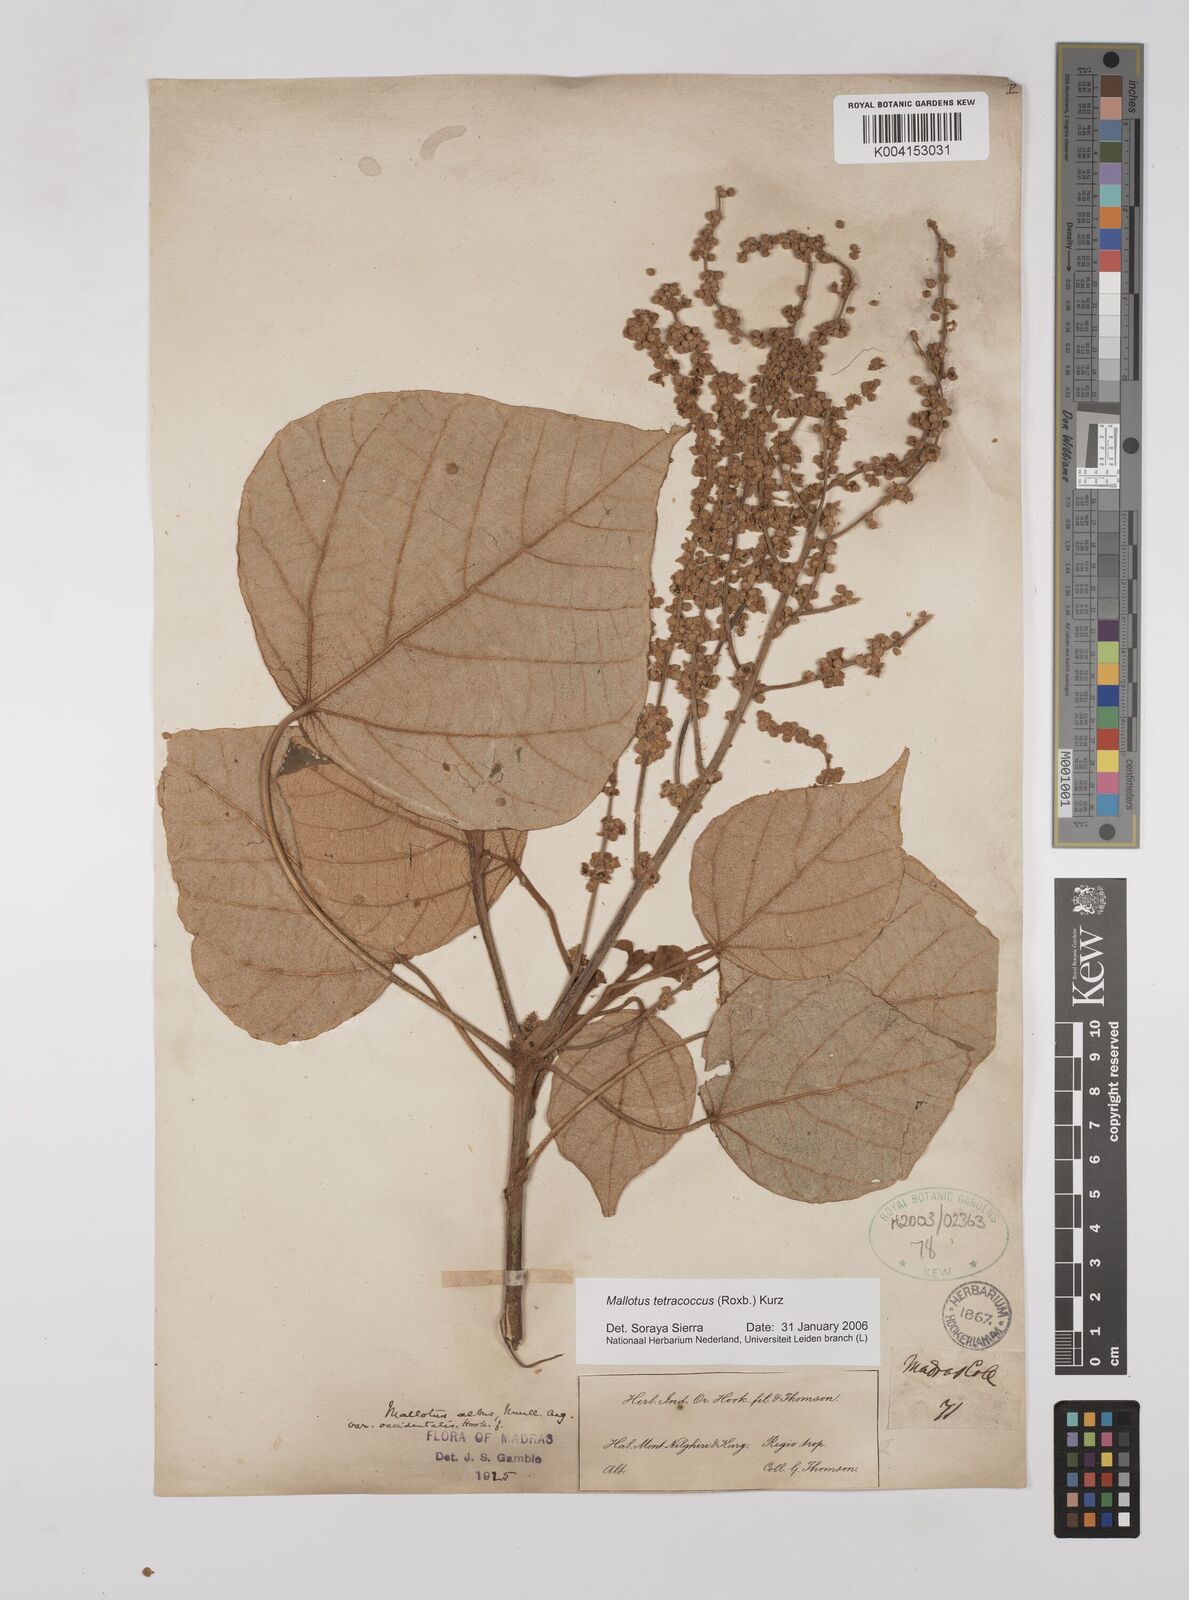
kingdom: Plantae
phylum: Tracheophyta
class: Magnoliopsida
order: Malpighiales
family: Euphorbiaceae
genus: Mallotus
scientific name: Mallotus tetracoccus
